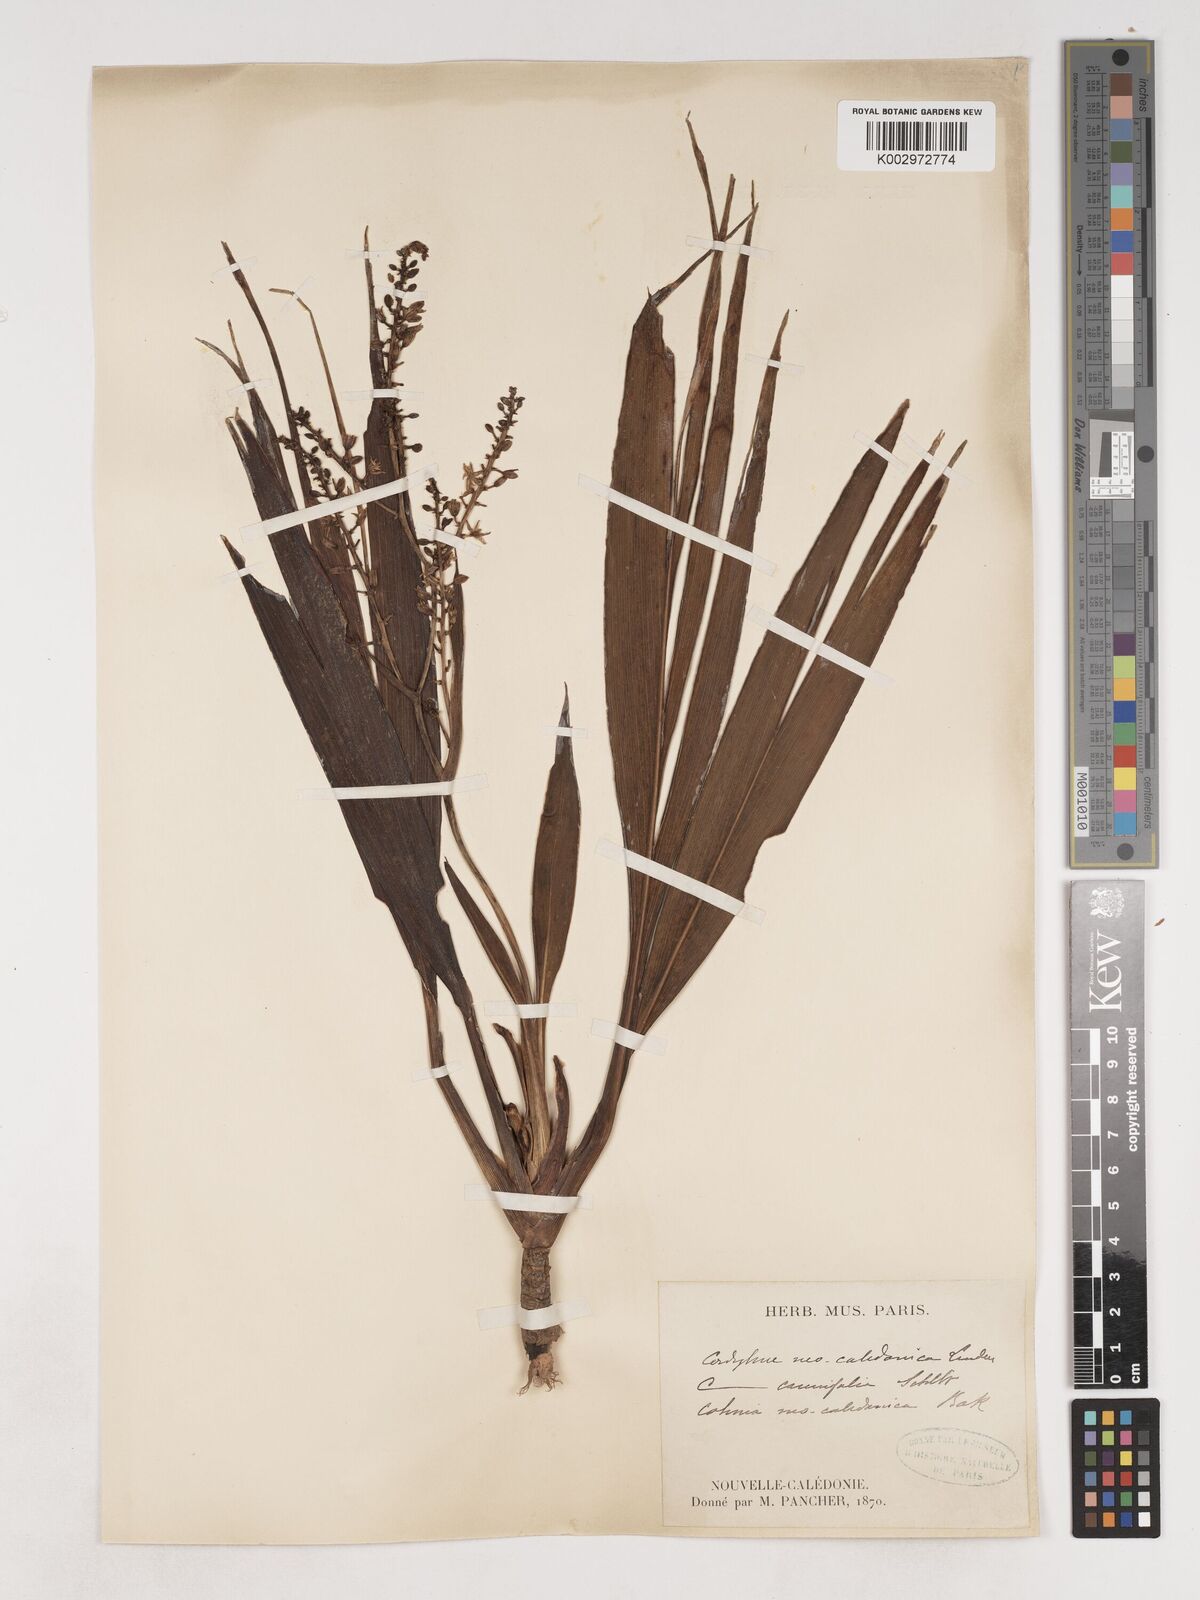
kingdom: Plantae
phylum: Tracheophyta
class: Liliopsida
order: Asparagales
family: Asparagaceae
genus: Cordyline
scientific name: Cordyline neocaledonica
